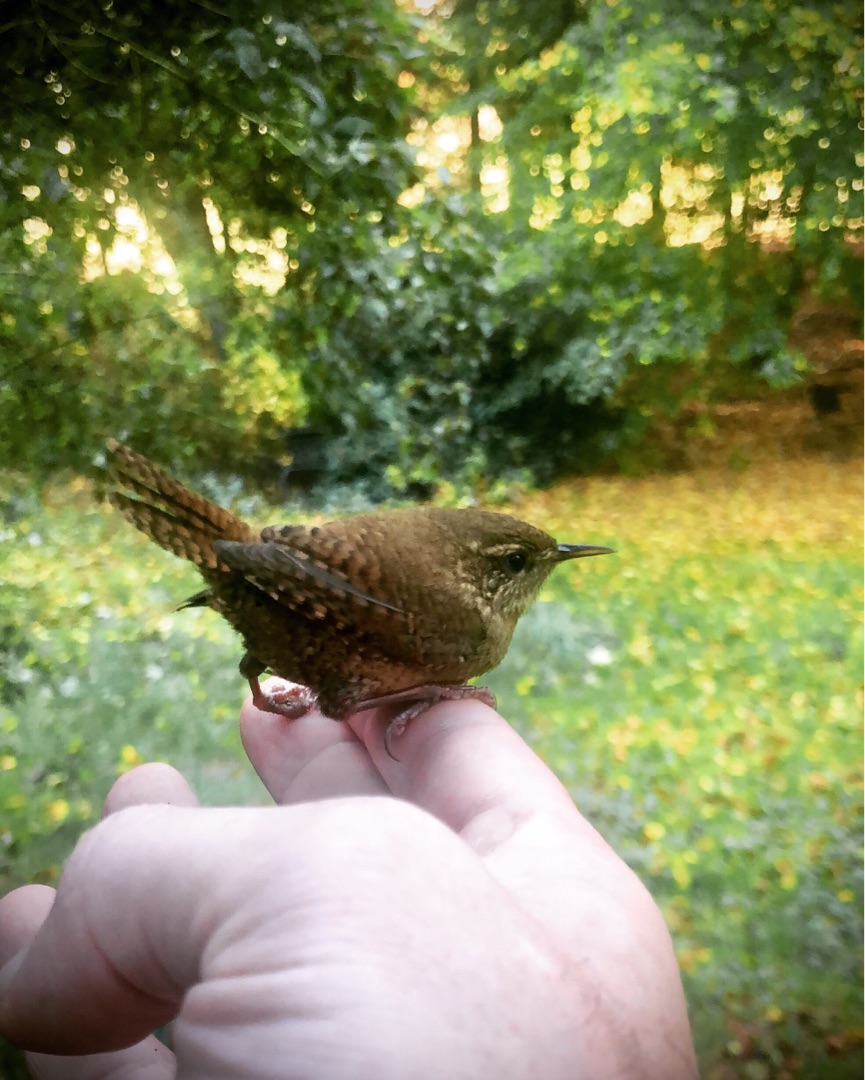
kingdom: Animalia
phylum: Chordata
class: Aves
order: Passeriformes
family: Troglodytidae
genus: Troglodytes
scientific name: Troglodytes troglodytes
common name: Gærdesmutte
